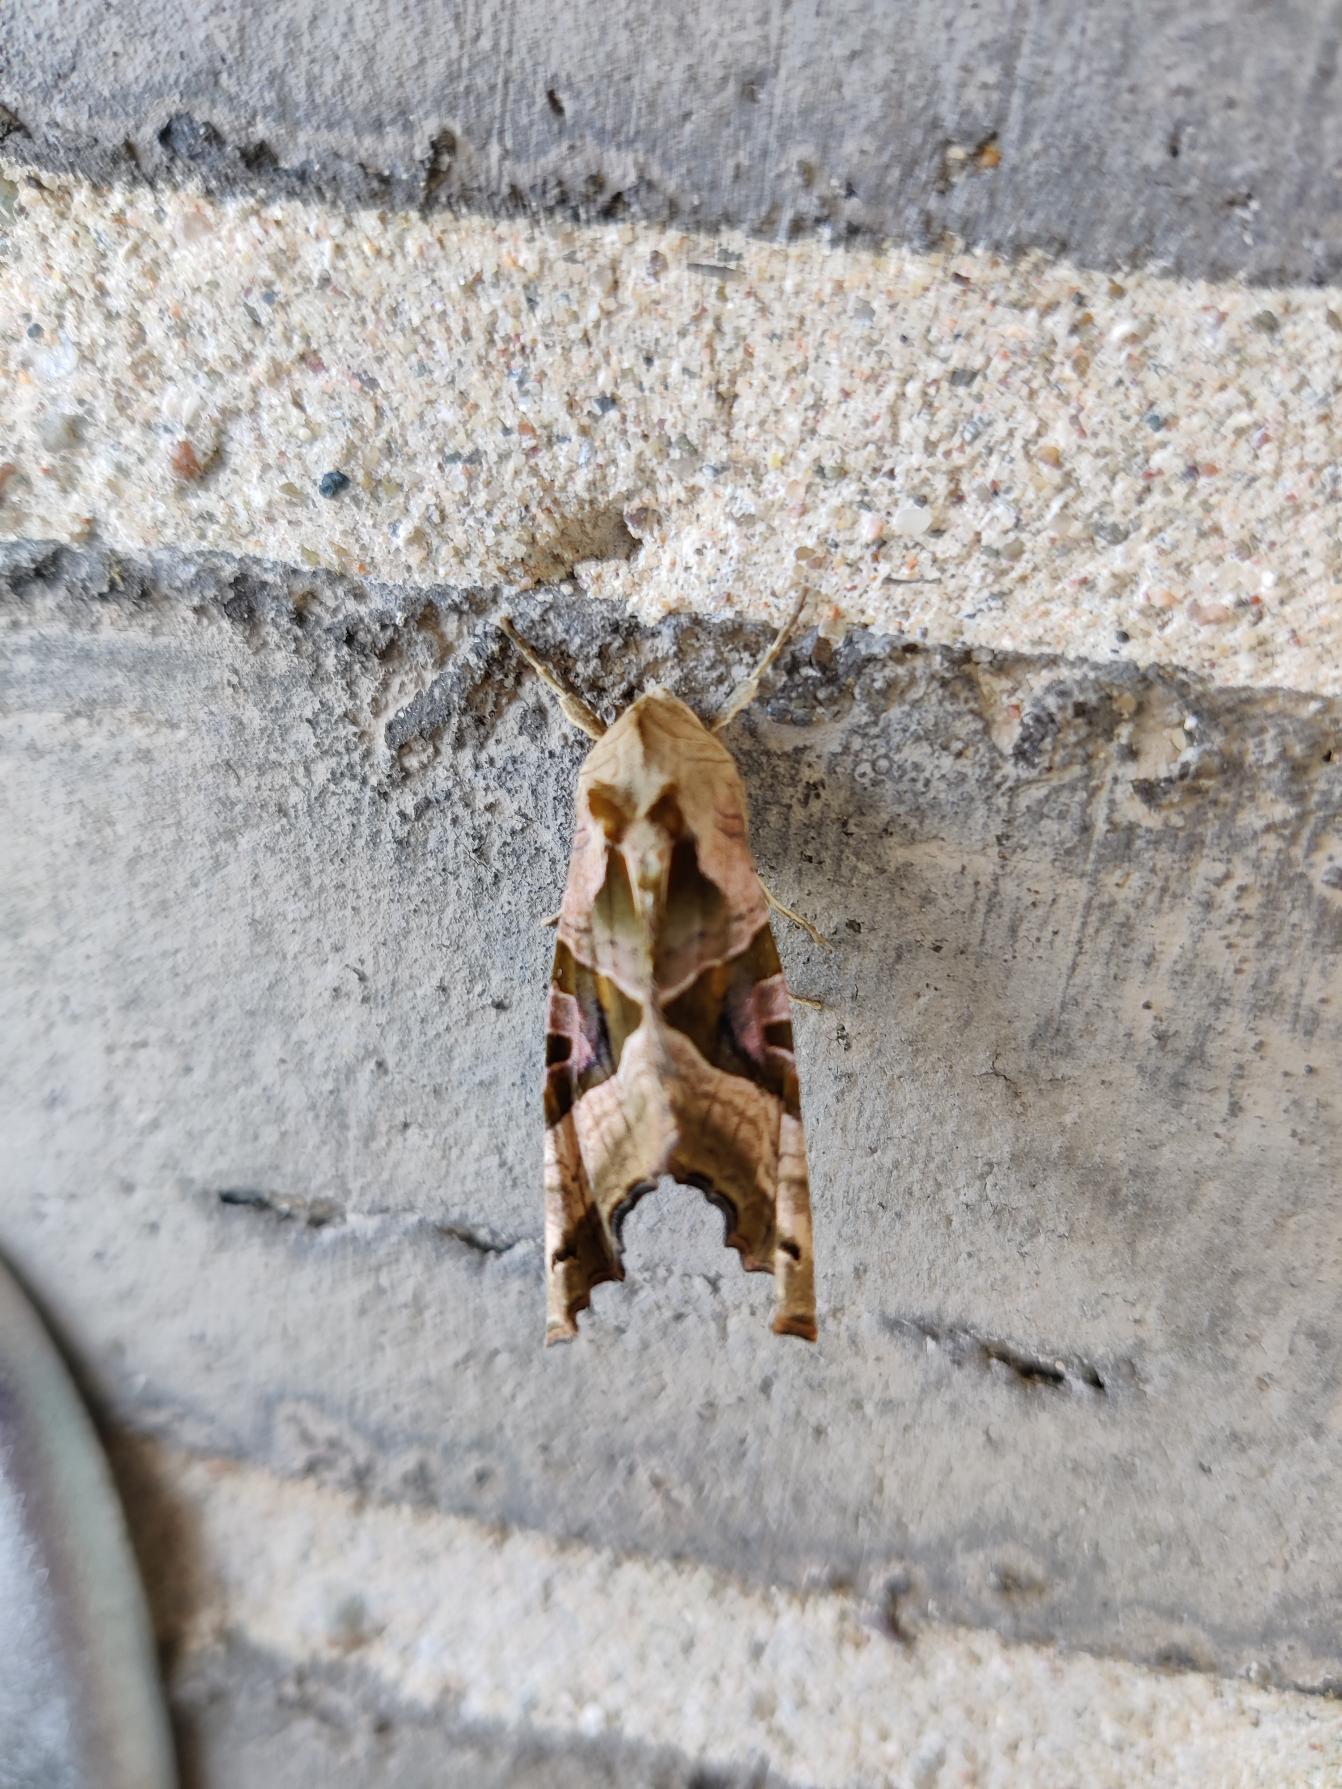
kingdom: Animalia
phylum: Arthropoda
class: Insecta
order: Lepidoptera
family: Noctuidae
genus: Phlogophora
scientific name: Phlogophora meticulosa
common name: Agatugle
